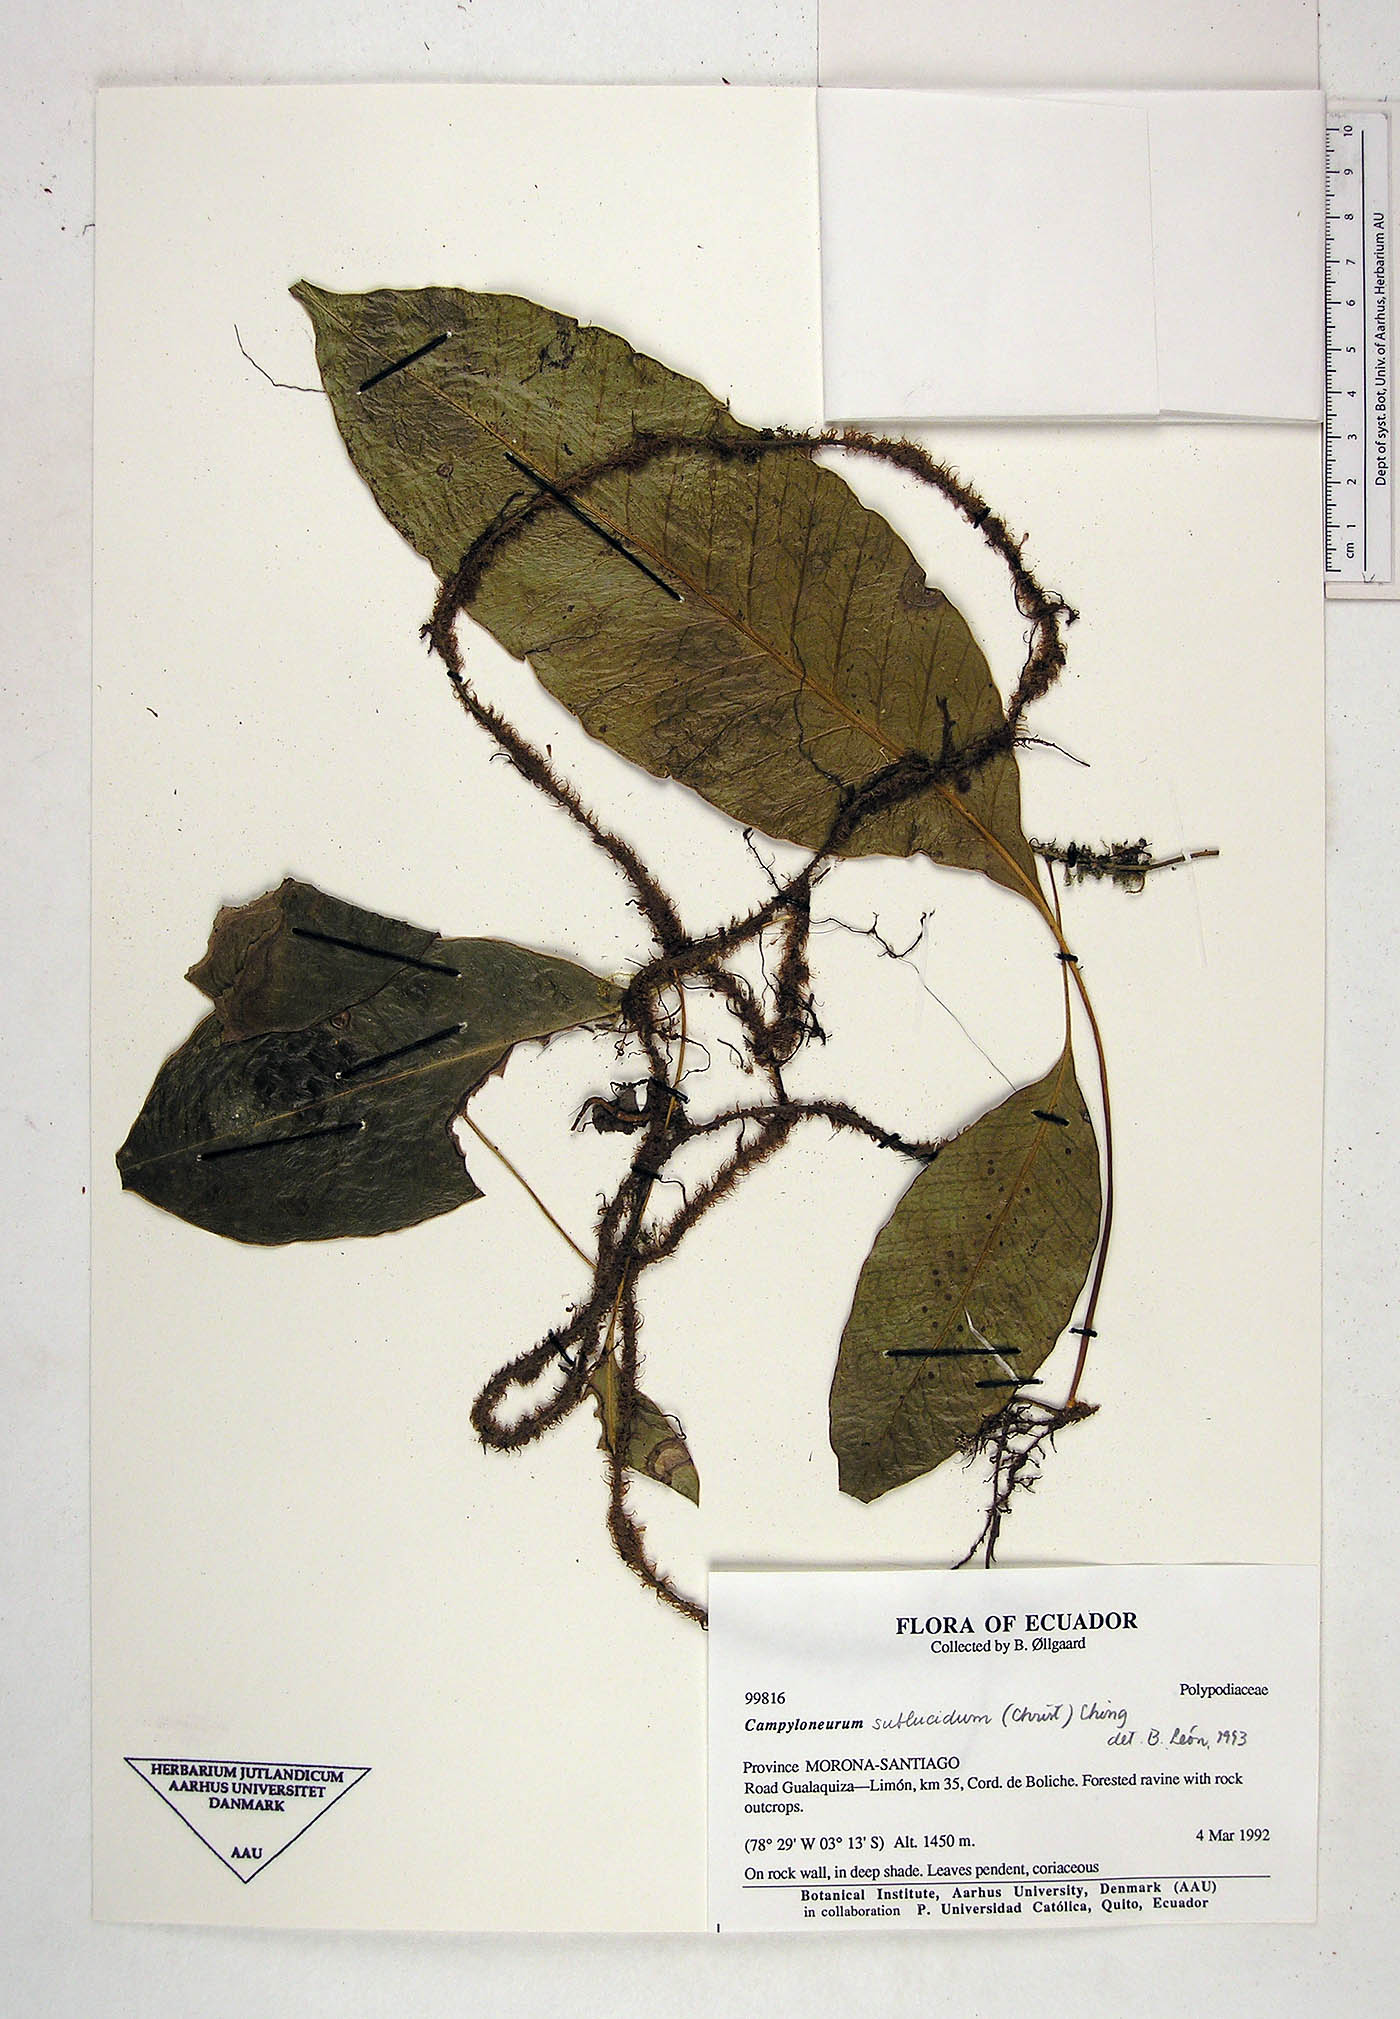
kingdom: Plantae
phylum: Tracheophyta
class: Polypodiopsida
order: Polypodiales
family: Polypodiaceae
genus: Campyloneurum
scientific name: Campyloneurum sublucidum
